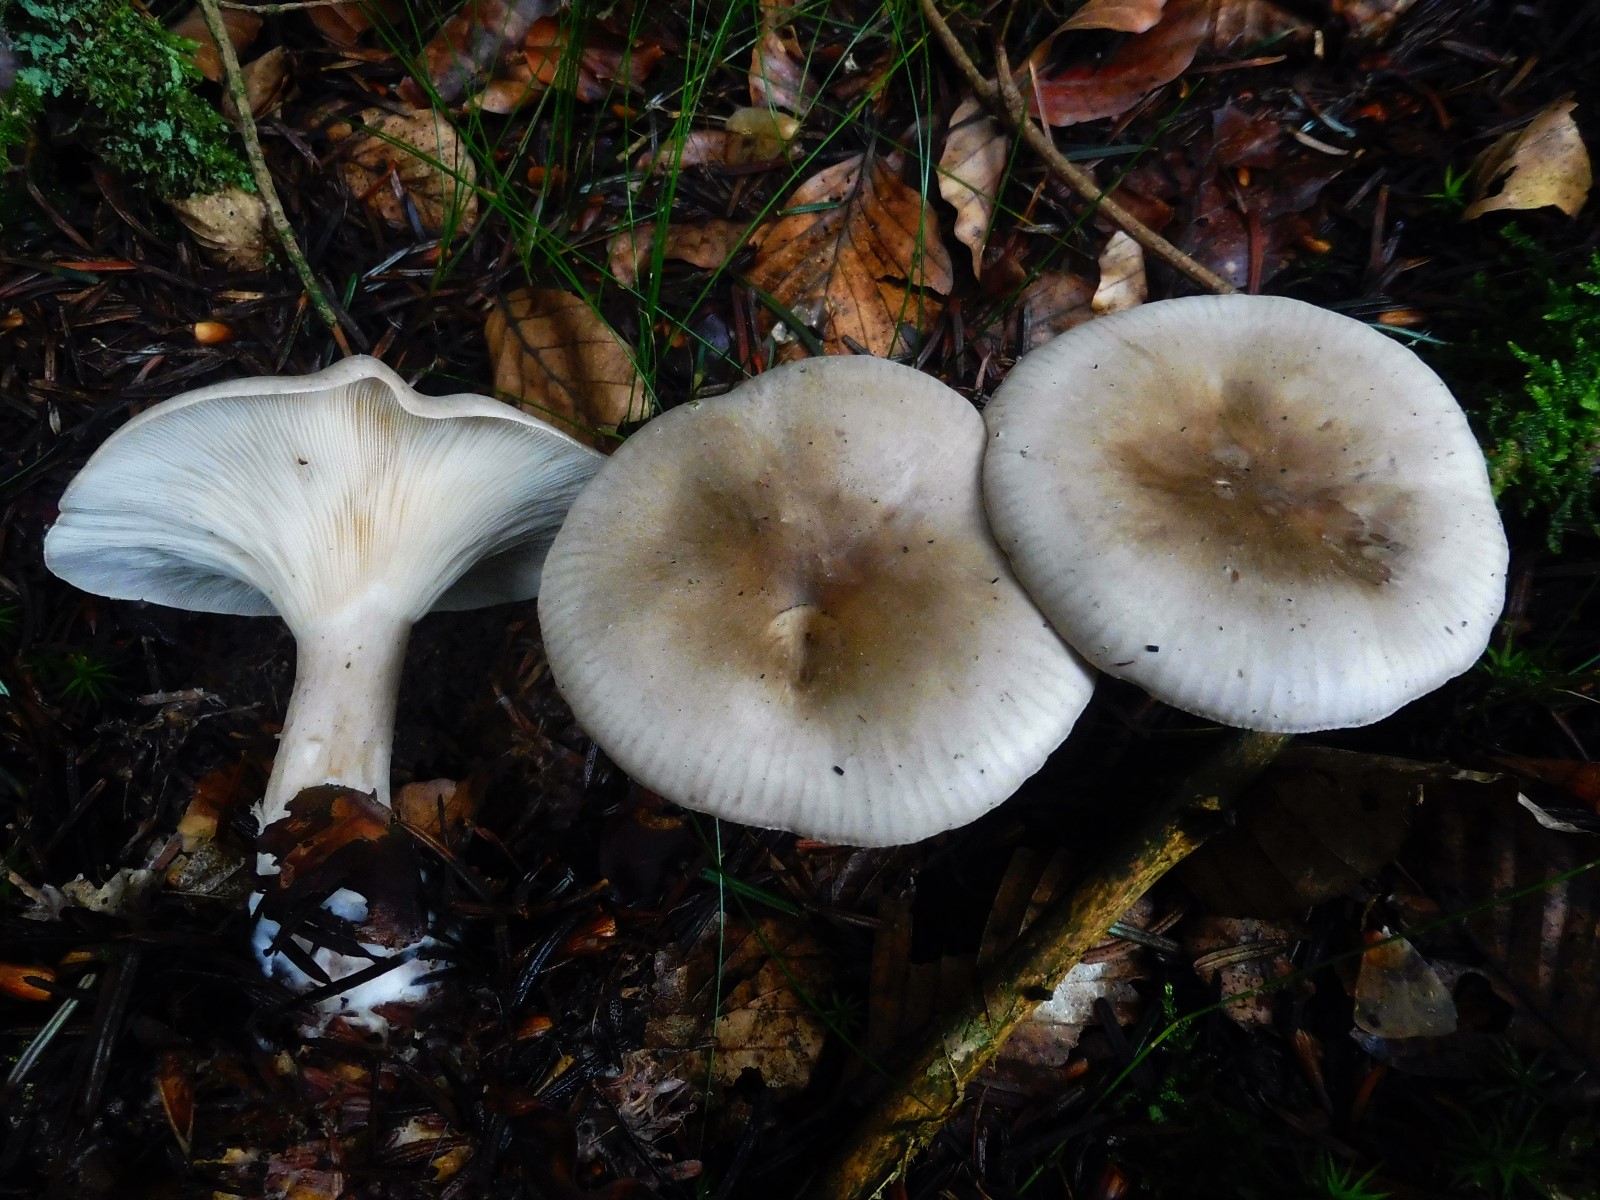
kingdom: Fungi
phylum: Basidiomycota
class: Agaricomycetes
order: Agaricales
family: Tricholomataceae
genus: Clitocybe
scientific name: Clitocybe nebularis
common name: tåge-tragthat
